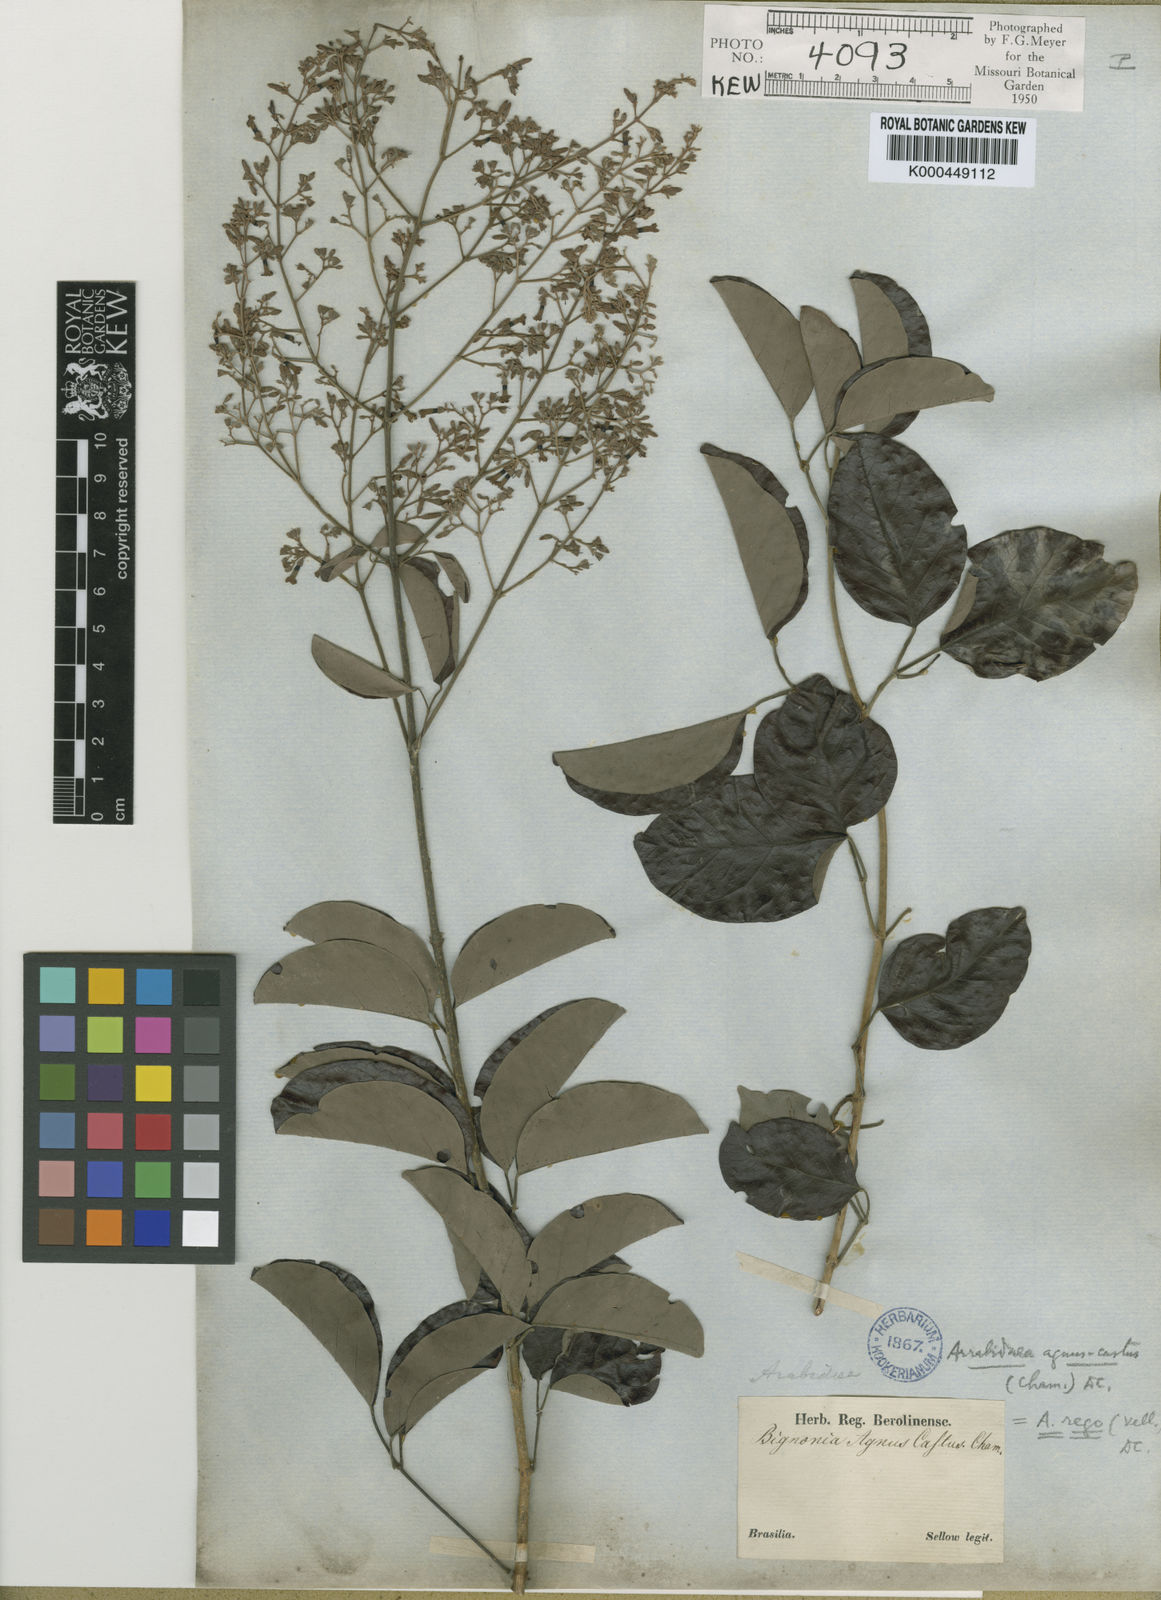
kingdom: Plantae
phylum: Tracheophyta
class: Magnoliopsida
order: Lamiales
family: Bignoniaceae
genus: Fridericia
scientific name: Fridericia rego
